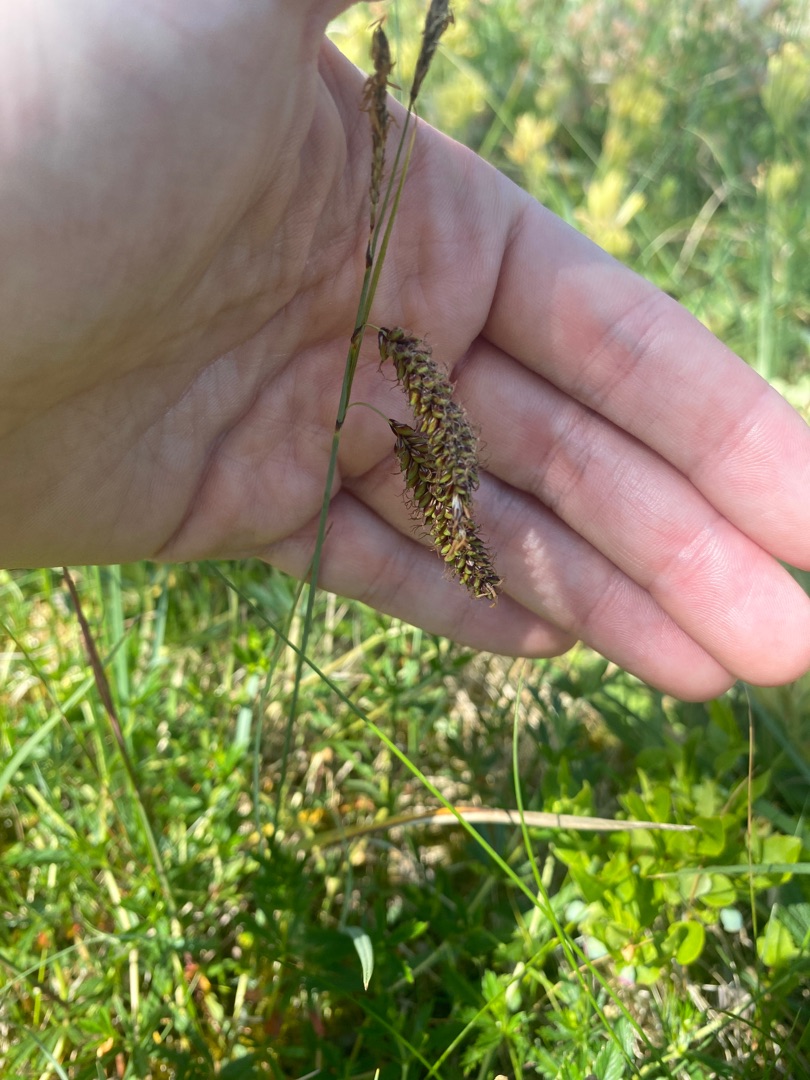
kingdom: Plantae
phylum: Tracheophyta
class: Liliopsida
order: Poales
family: Cyperaceae
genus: Carex
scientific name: Carex flacca
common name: Blågrøn star
